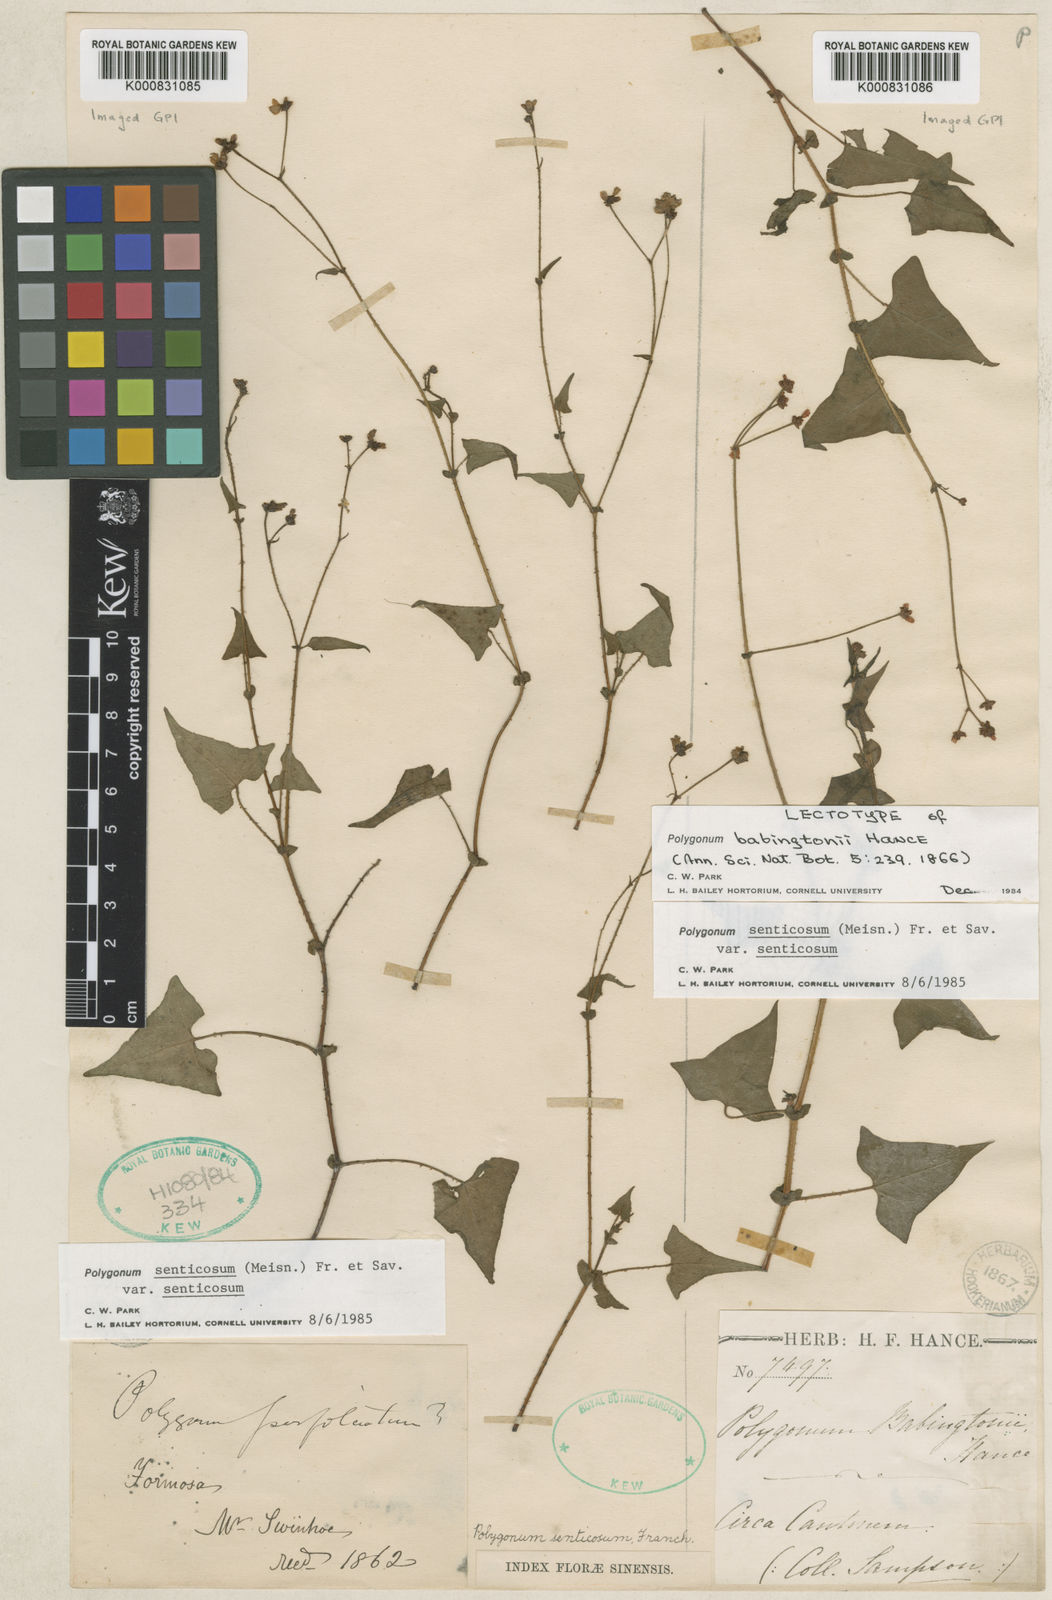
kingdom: Plantae
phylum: Tracheophyta
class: Magnoliopsida
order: Caryophyllales
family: Polygonaceae
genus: Persicaria
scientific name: Persicaria
